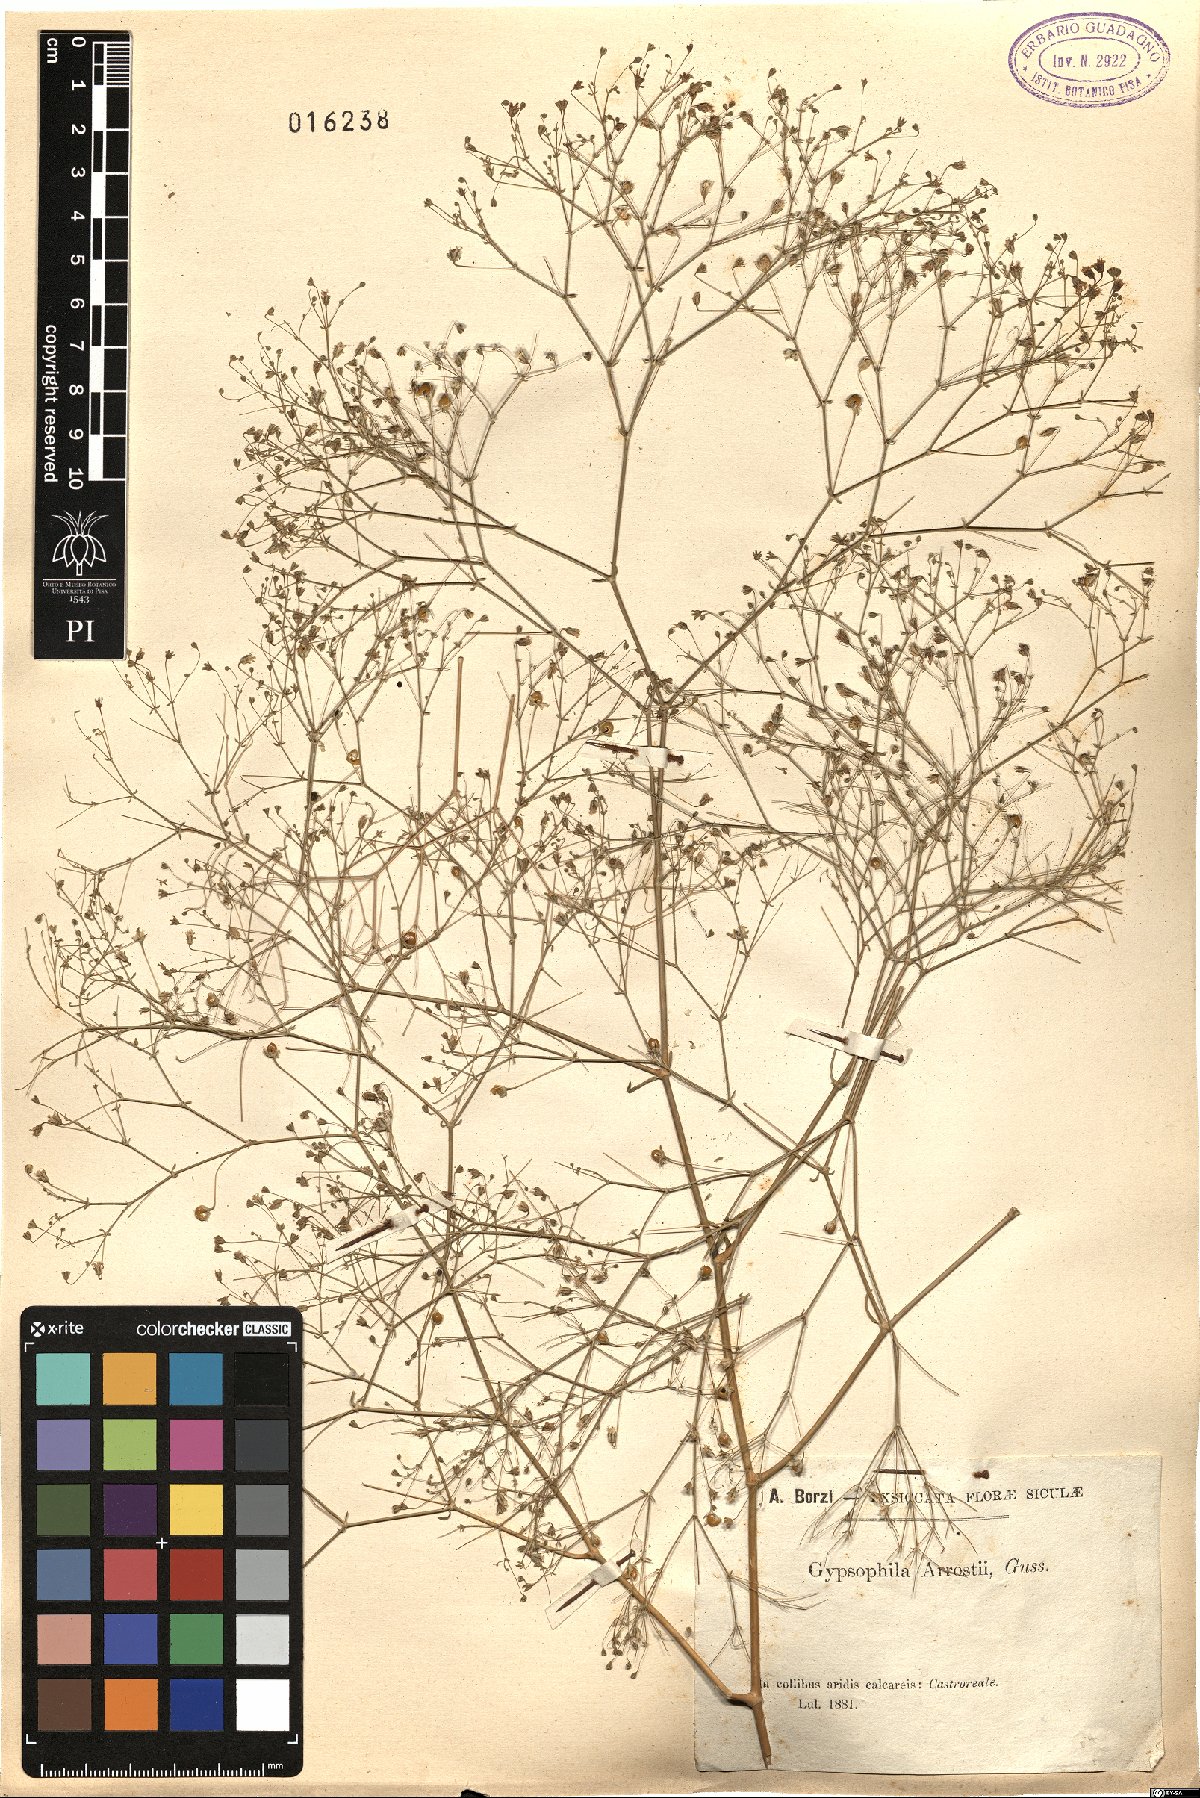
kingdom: Plantae
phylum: Tracheophyta
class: Magnoliopsida
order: Caryophyllales
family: Caryophyllaceae
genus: Gypsophila
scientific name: Gypsophila arrostii
